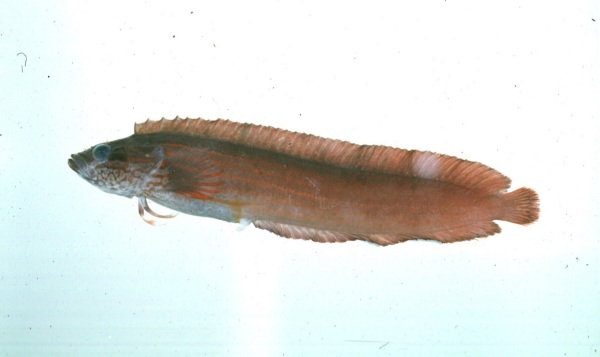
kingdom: Animalia
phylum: Chordata
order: Perciformes
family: Clinidae
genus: Blennophis
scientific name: Blennophis striatus
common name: Striped klipfish
